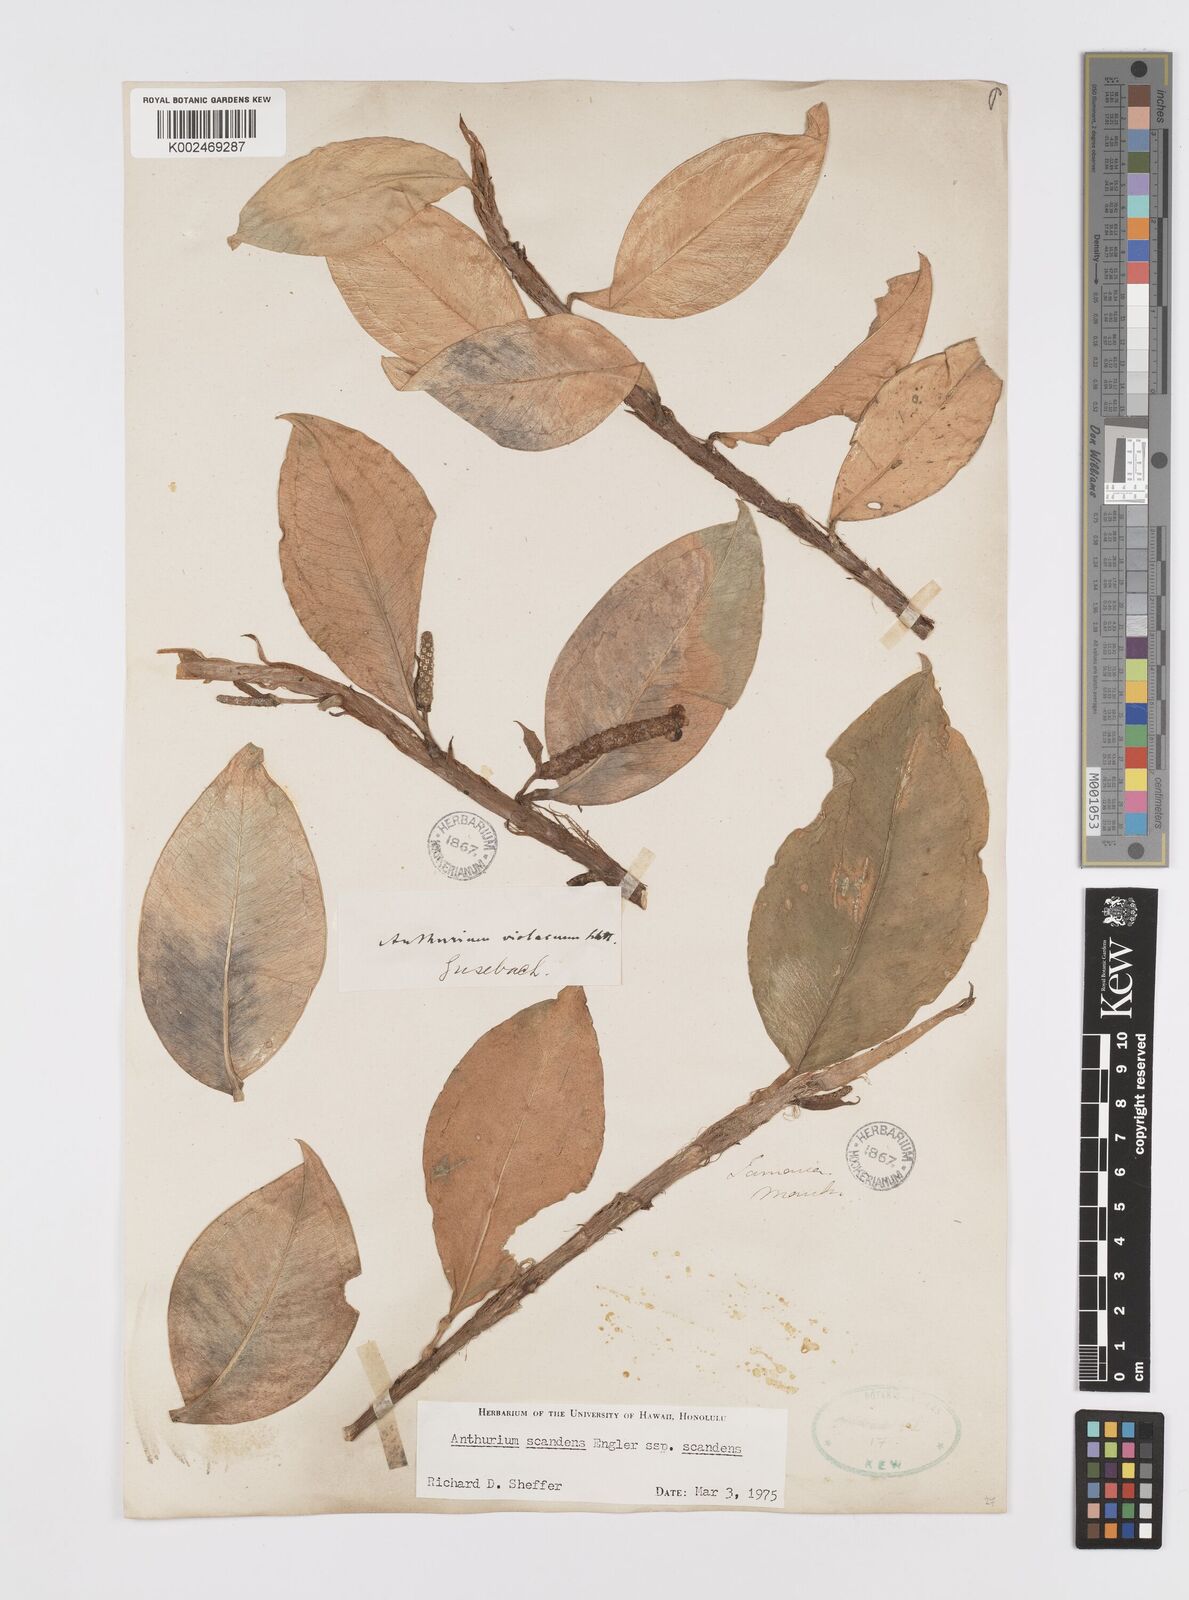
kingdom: Plantae
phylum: Tracheophyta
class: Liliopsida
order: Alismatales
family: Araceae
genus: Anthurium
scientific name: Anthurium scandens
